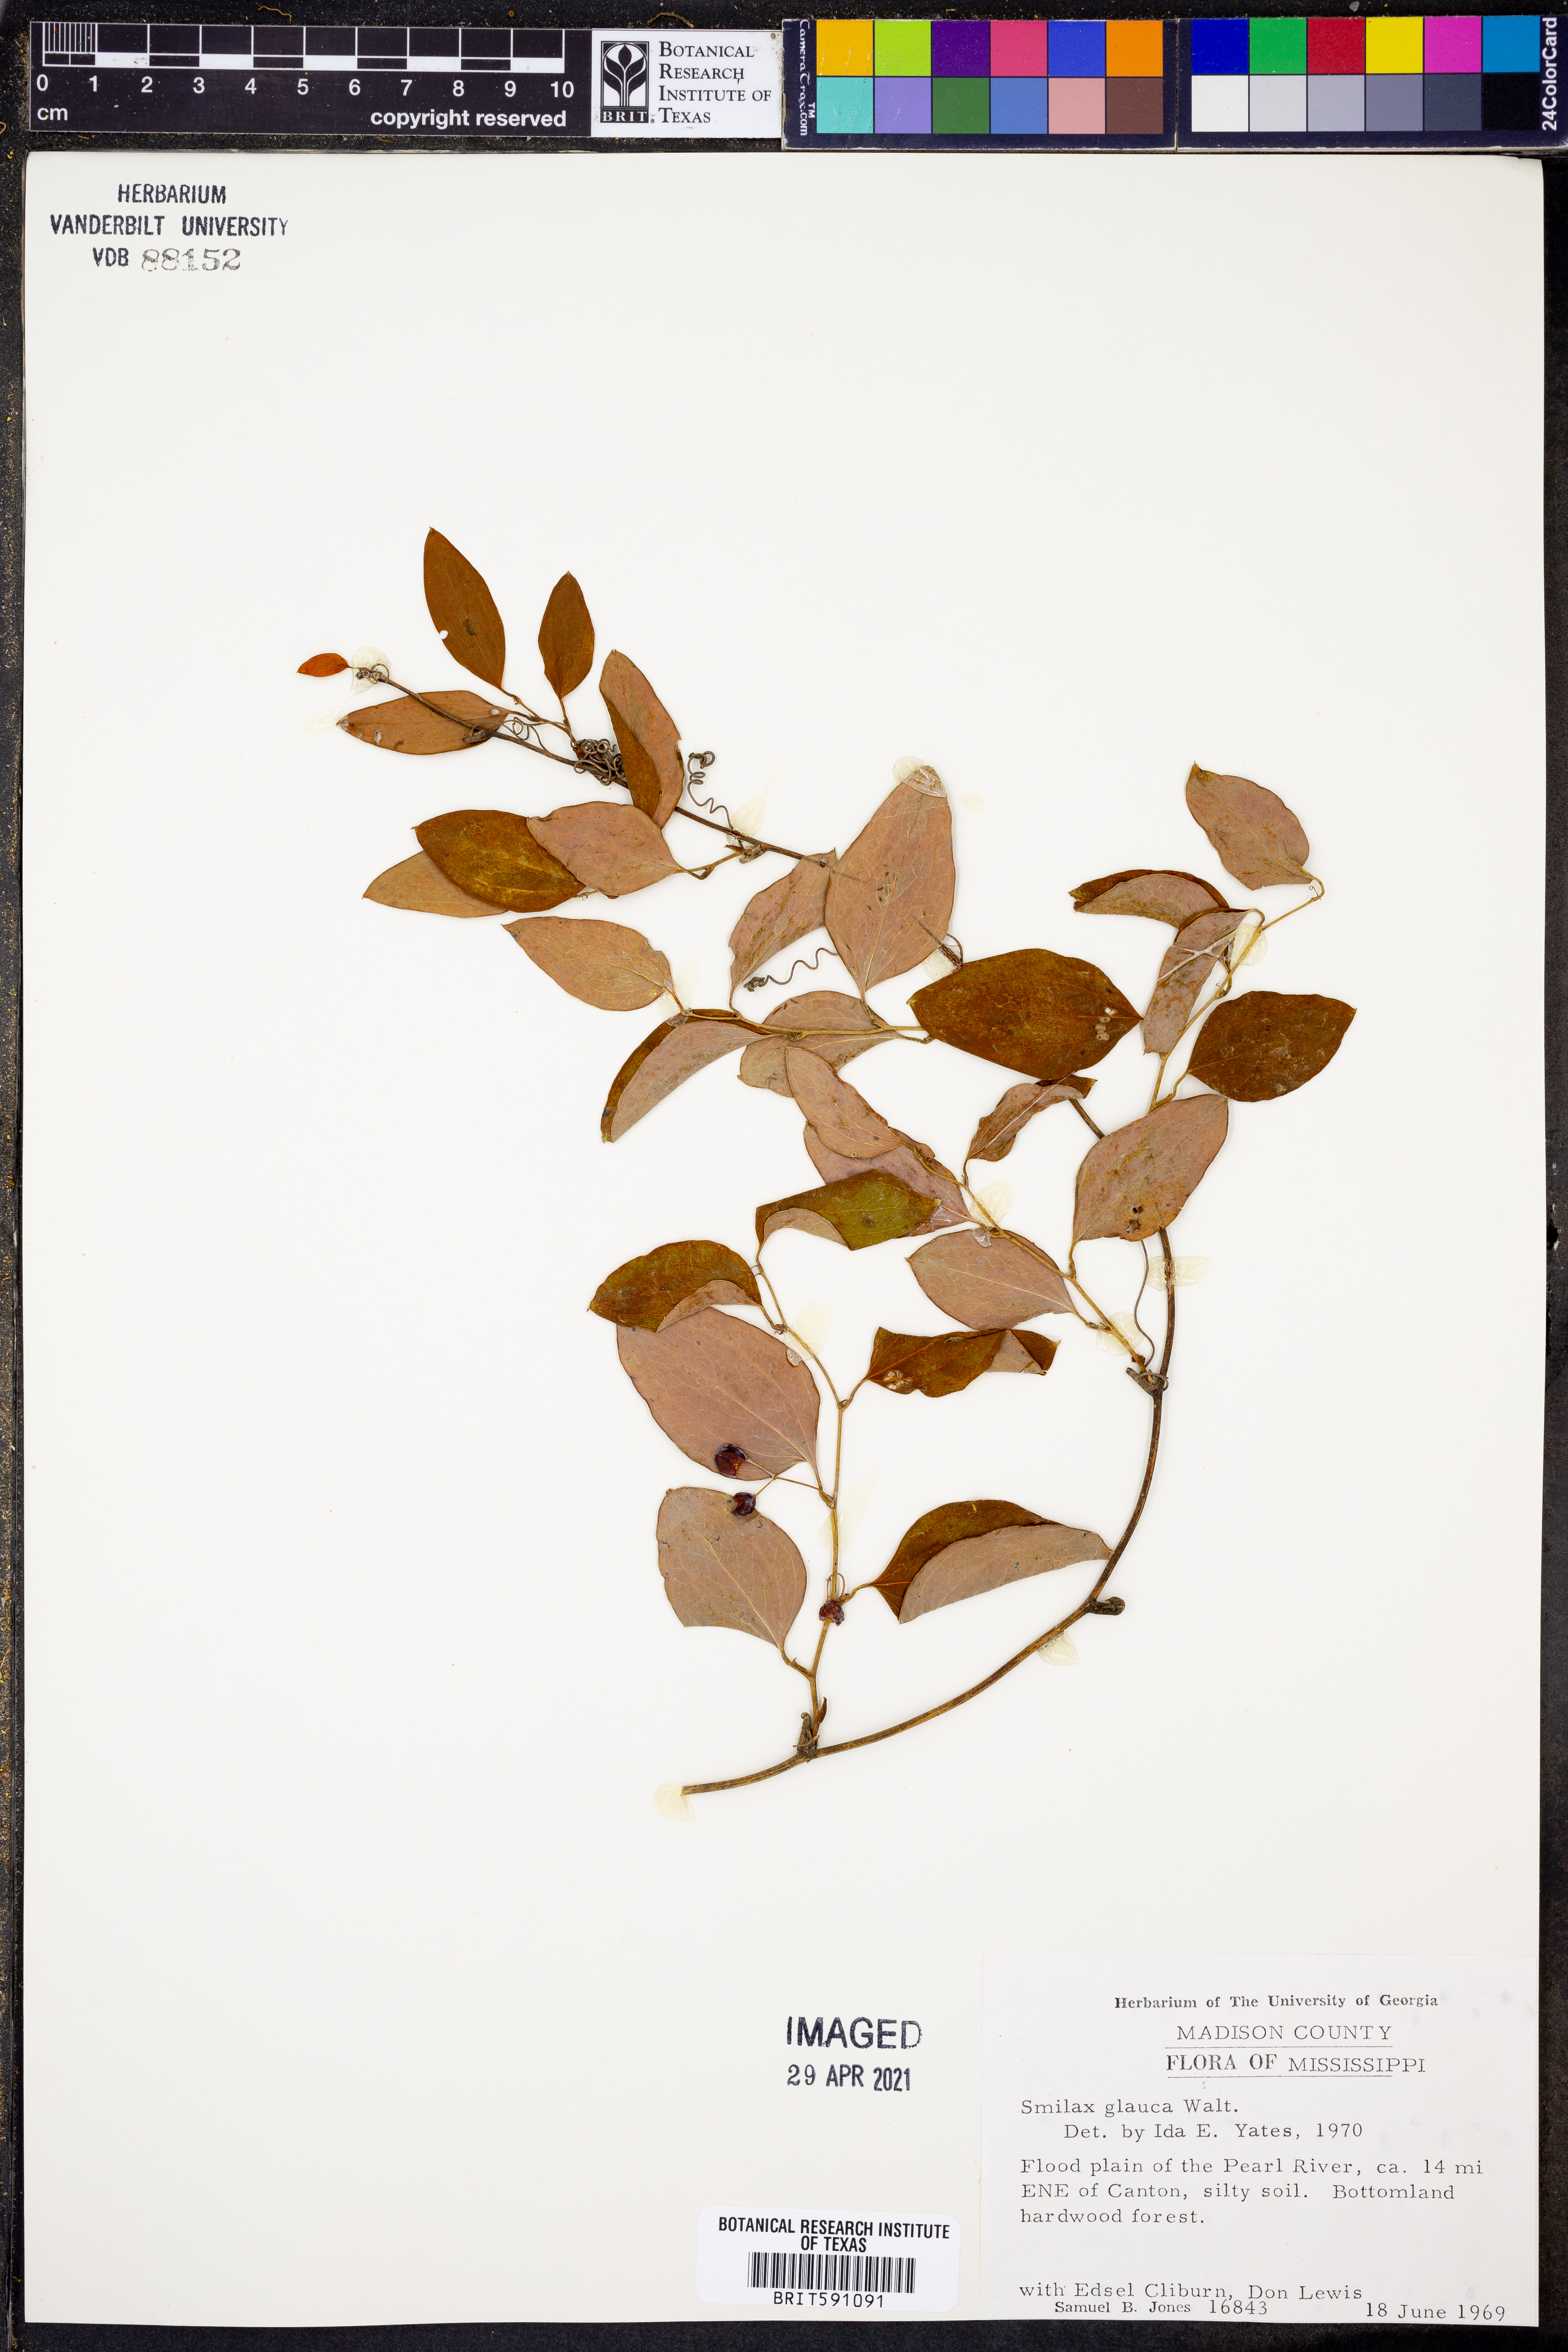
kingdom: Plantae
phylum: Tracheophyta
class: Liliopsida
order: Liliales
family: Smilacaceae
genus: Smilax
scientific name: Smilax glauca
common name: Cat greenbrier
